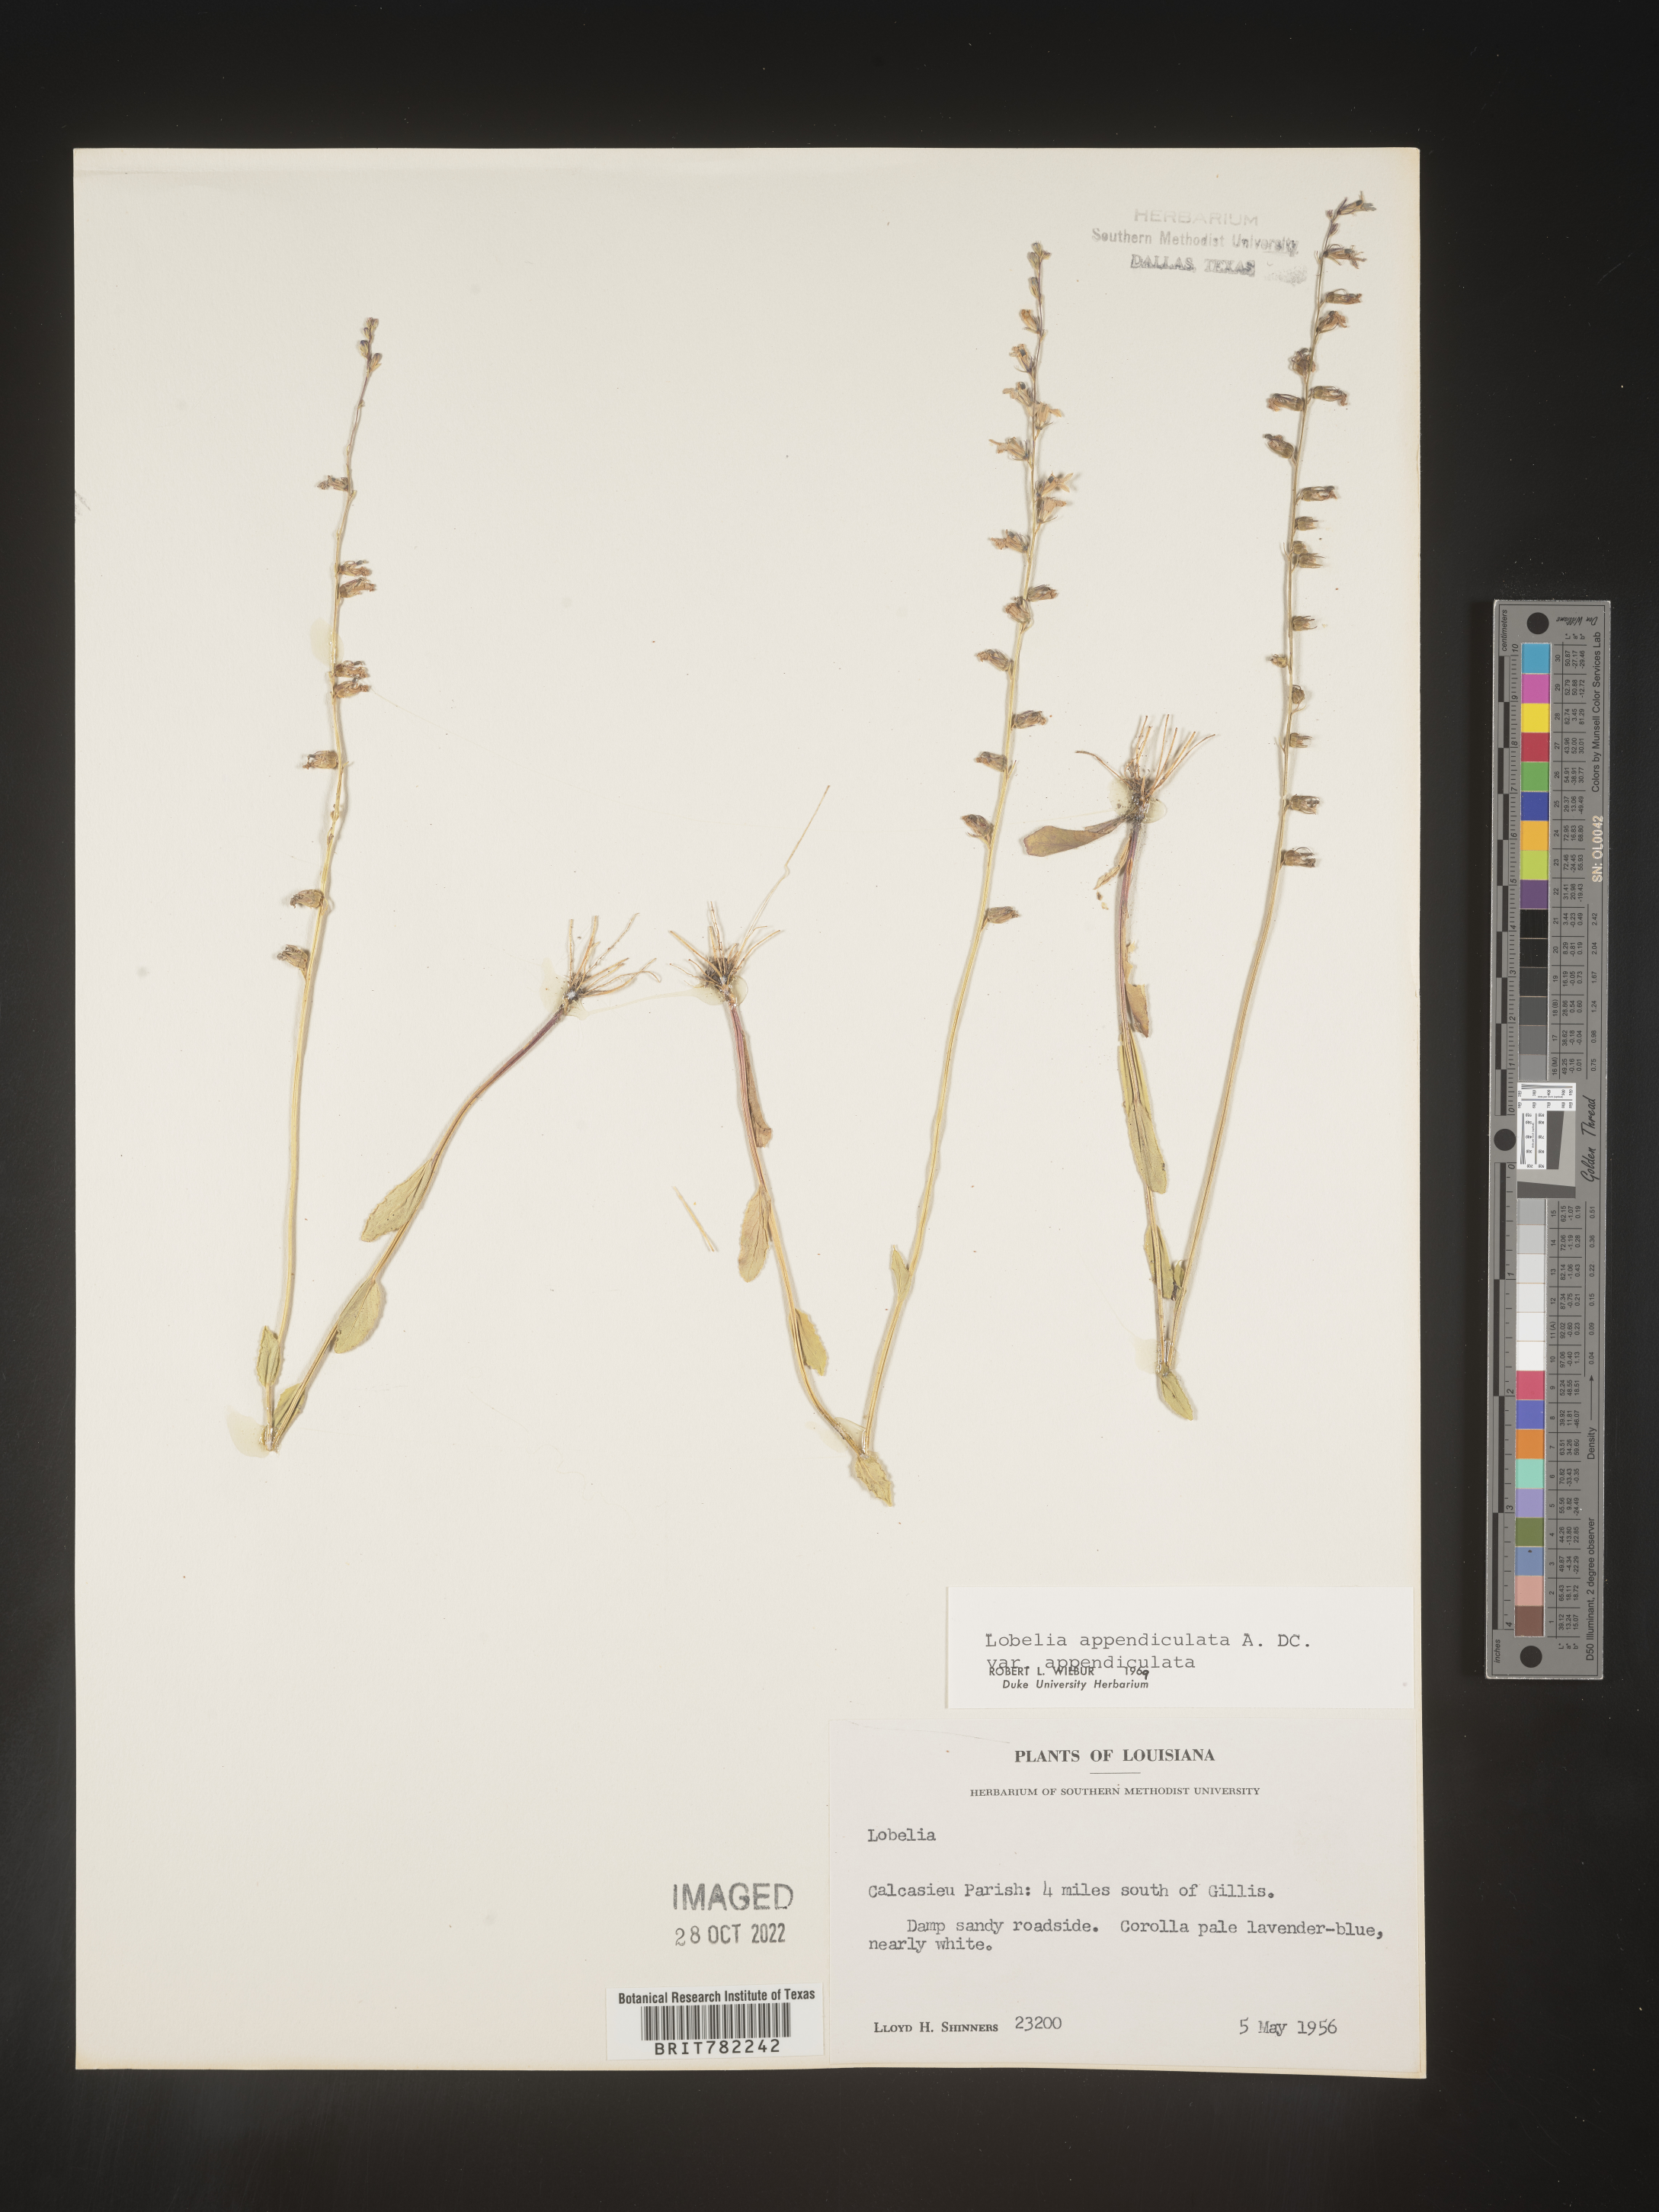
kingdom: Plantae
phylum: Tracheophyta
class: Magnoliopsida
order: Asterales
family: Campanulaceae
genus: Lobelia
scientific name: Lobelia appendiculata
